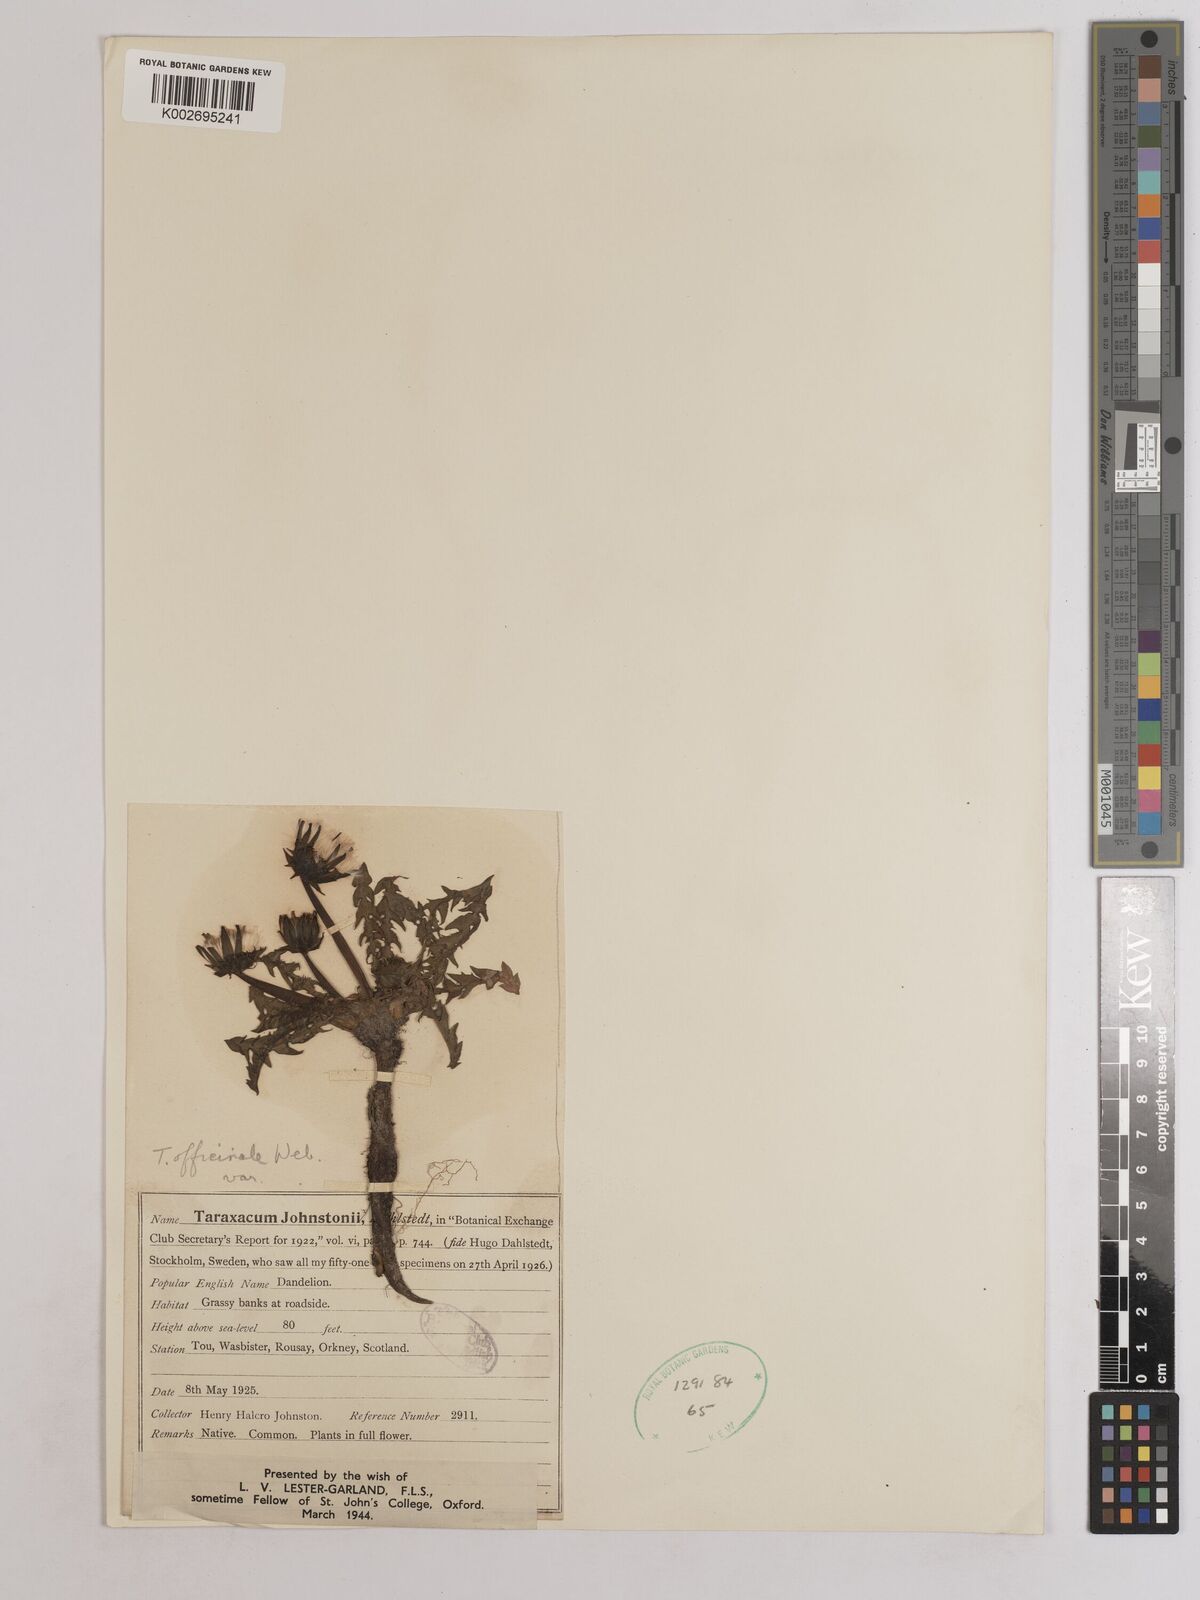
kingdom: Plantae
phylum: Tracheophyta
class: Magnoliopsida
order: Asterales
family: Asteraceae
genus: Taraxacum
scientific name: Taraxacum officinale
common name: Common dandelion
